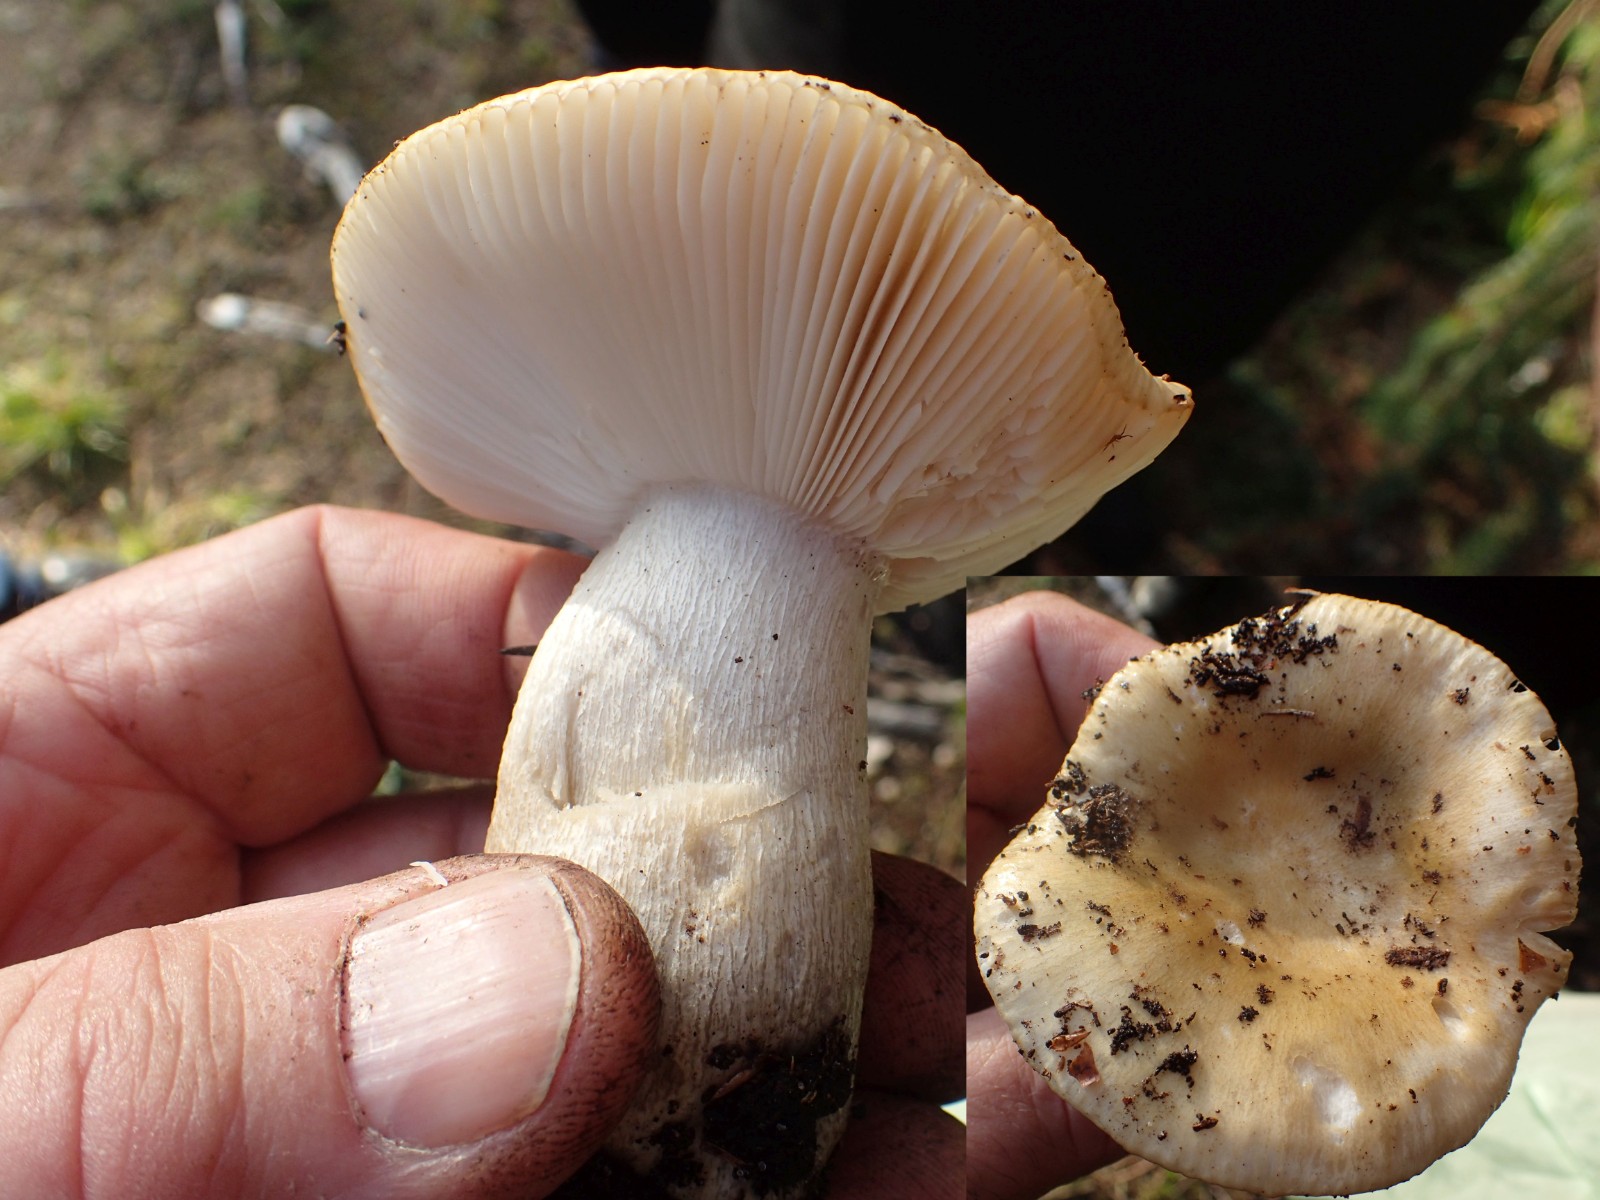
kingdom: Fungi
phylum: Basidiomycota
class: Agaricomycetes
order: Russulales
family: Russulaceae
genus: Russula
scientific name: Russula
